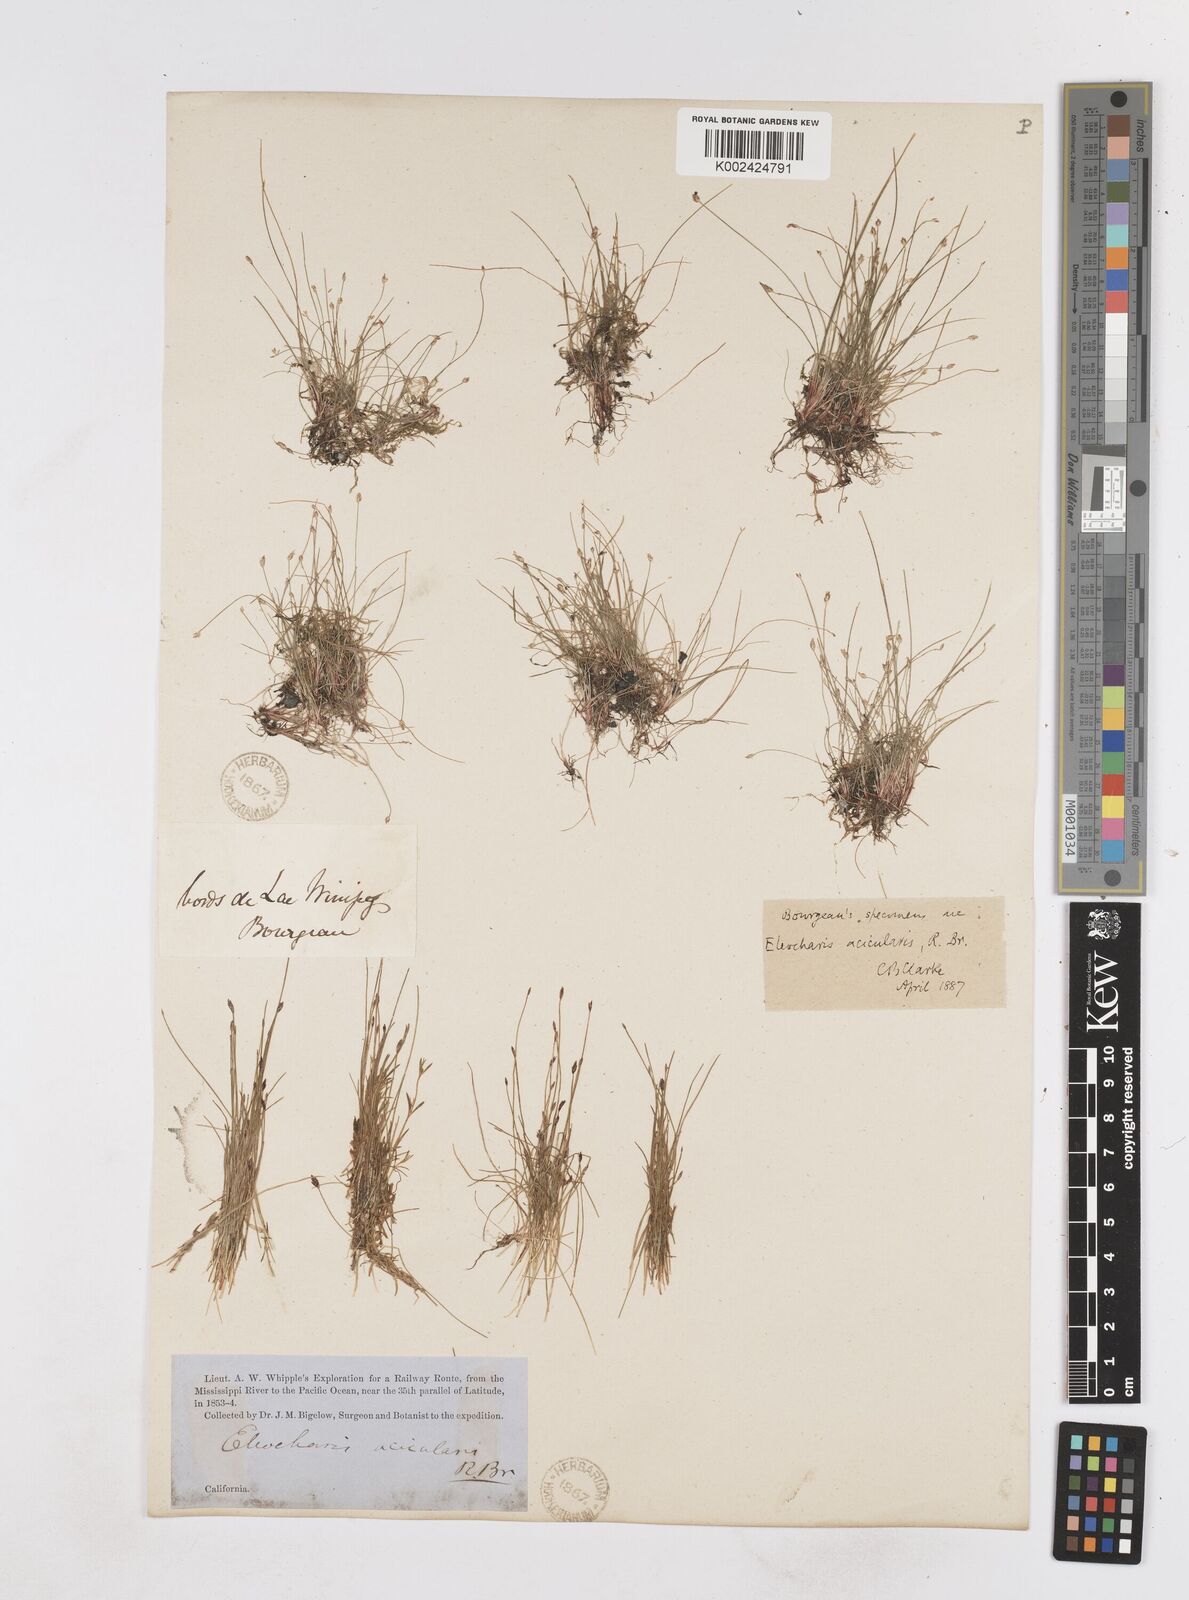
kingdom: Plantae
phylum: Tracheophyta
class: Liliopsida
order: Poales
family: Cyperaceae
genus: Eleocharis
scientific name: Eleocharis acicularis
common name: Needle spike-rush
